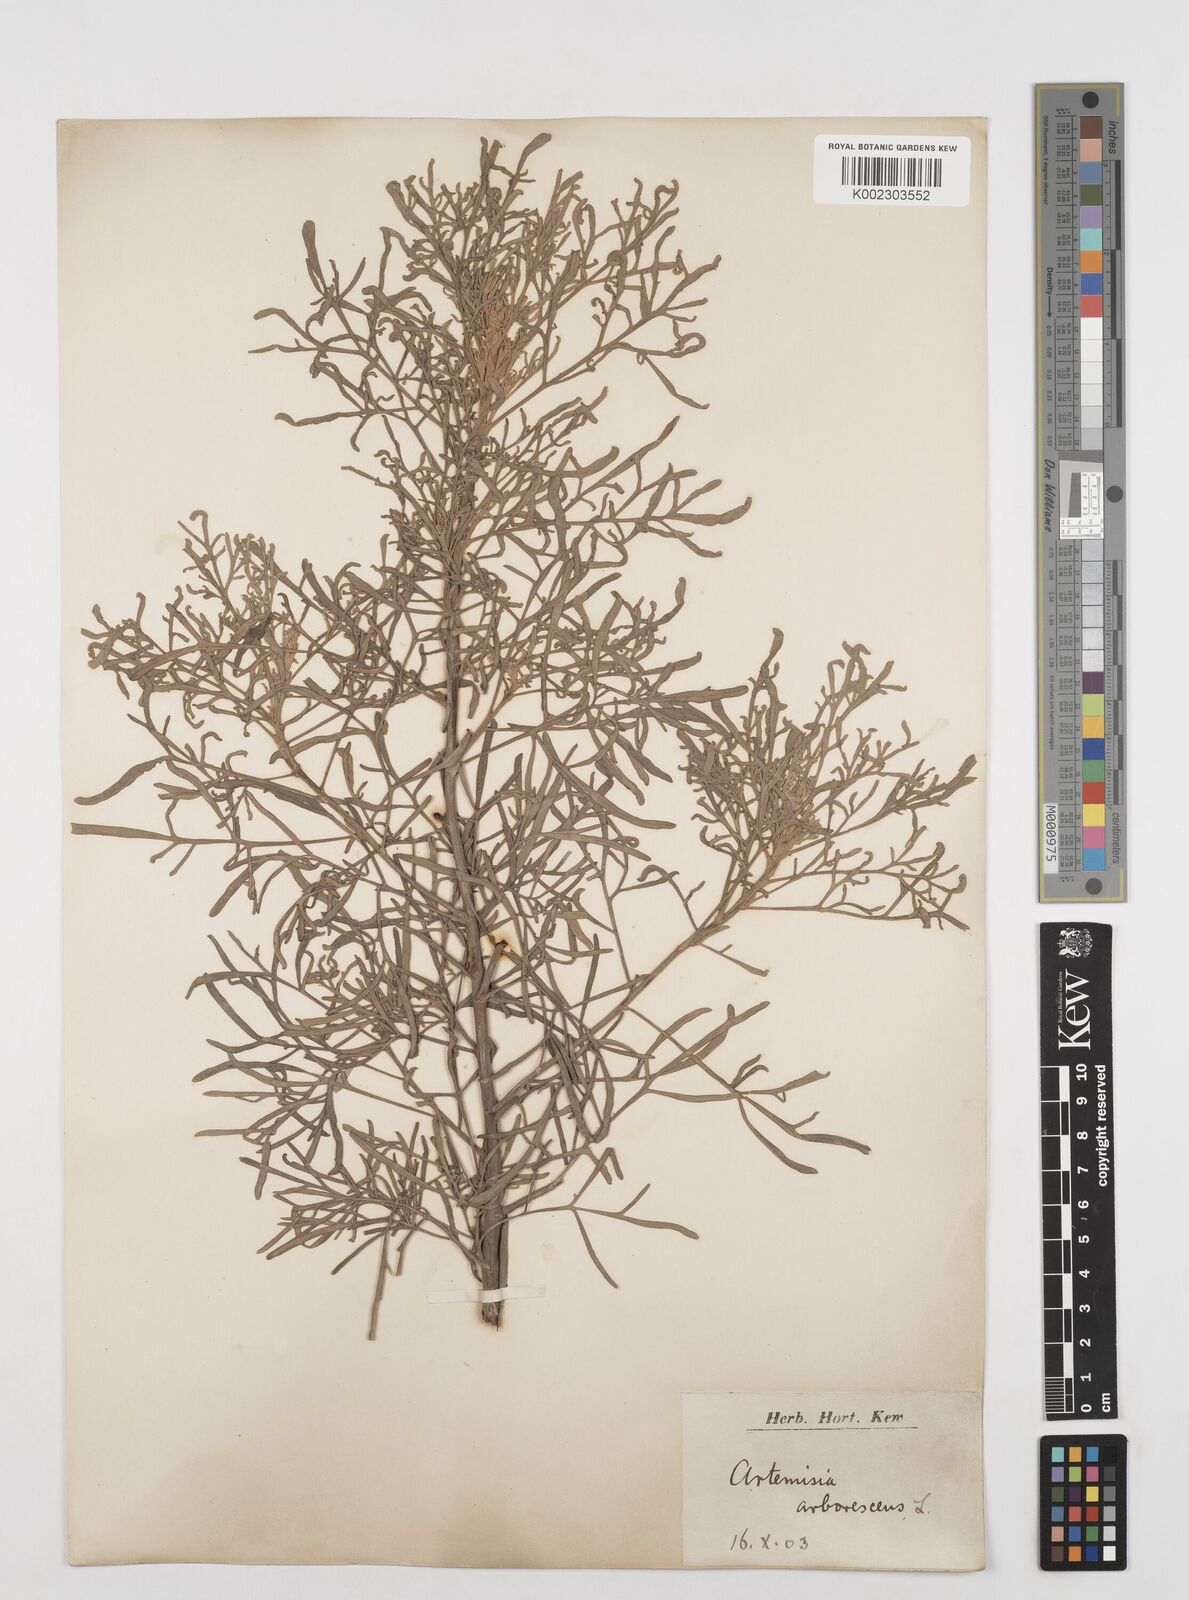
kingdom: Plantae
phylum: Tracheophyta
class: Magnoliopsida
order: Asterales
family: Asteraceae
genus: Artemisia
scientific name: Artemisia arborescens
